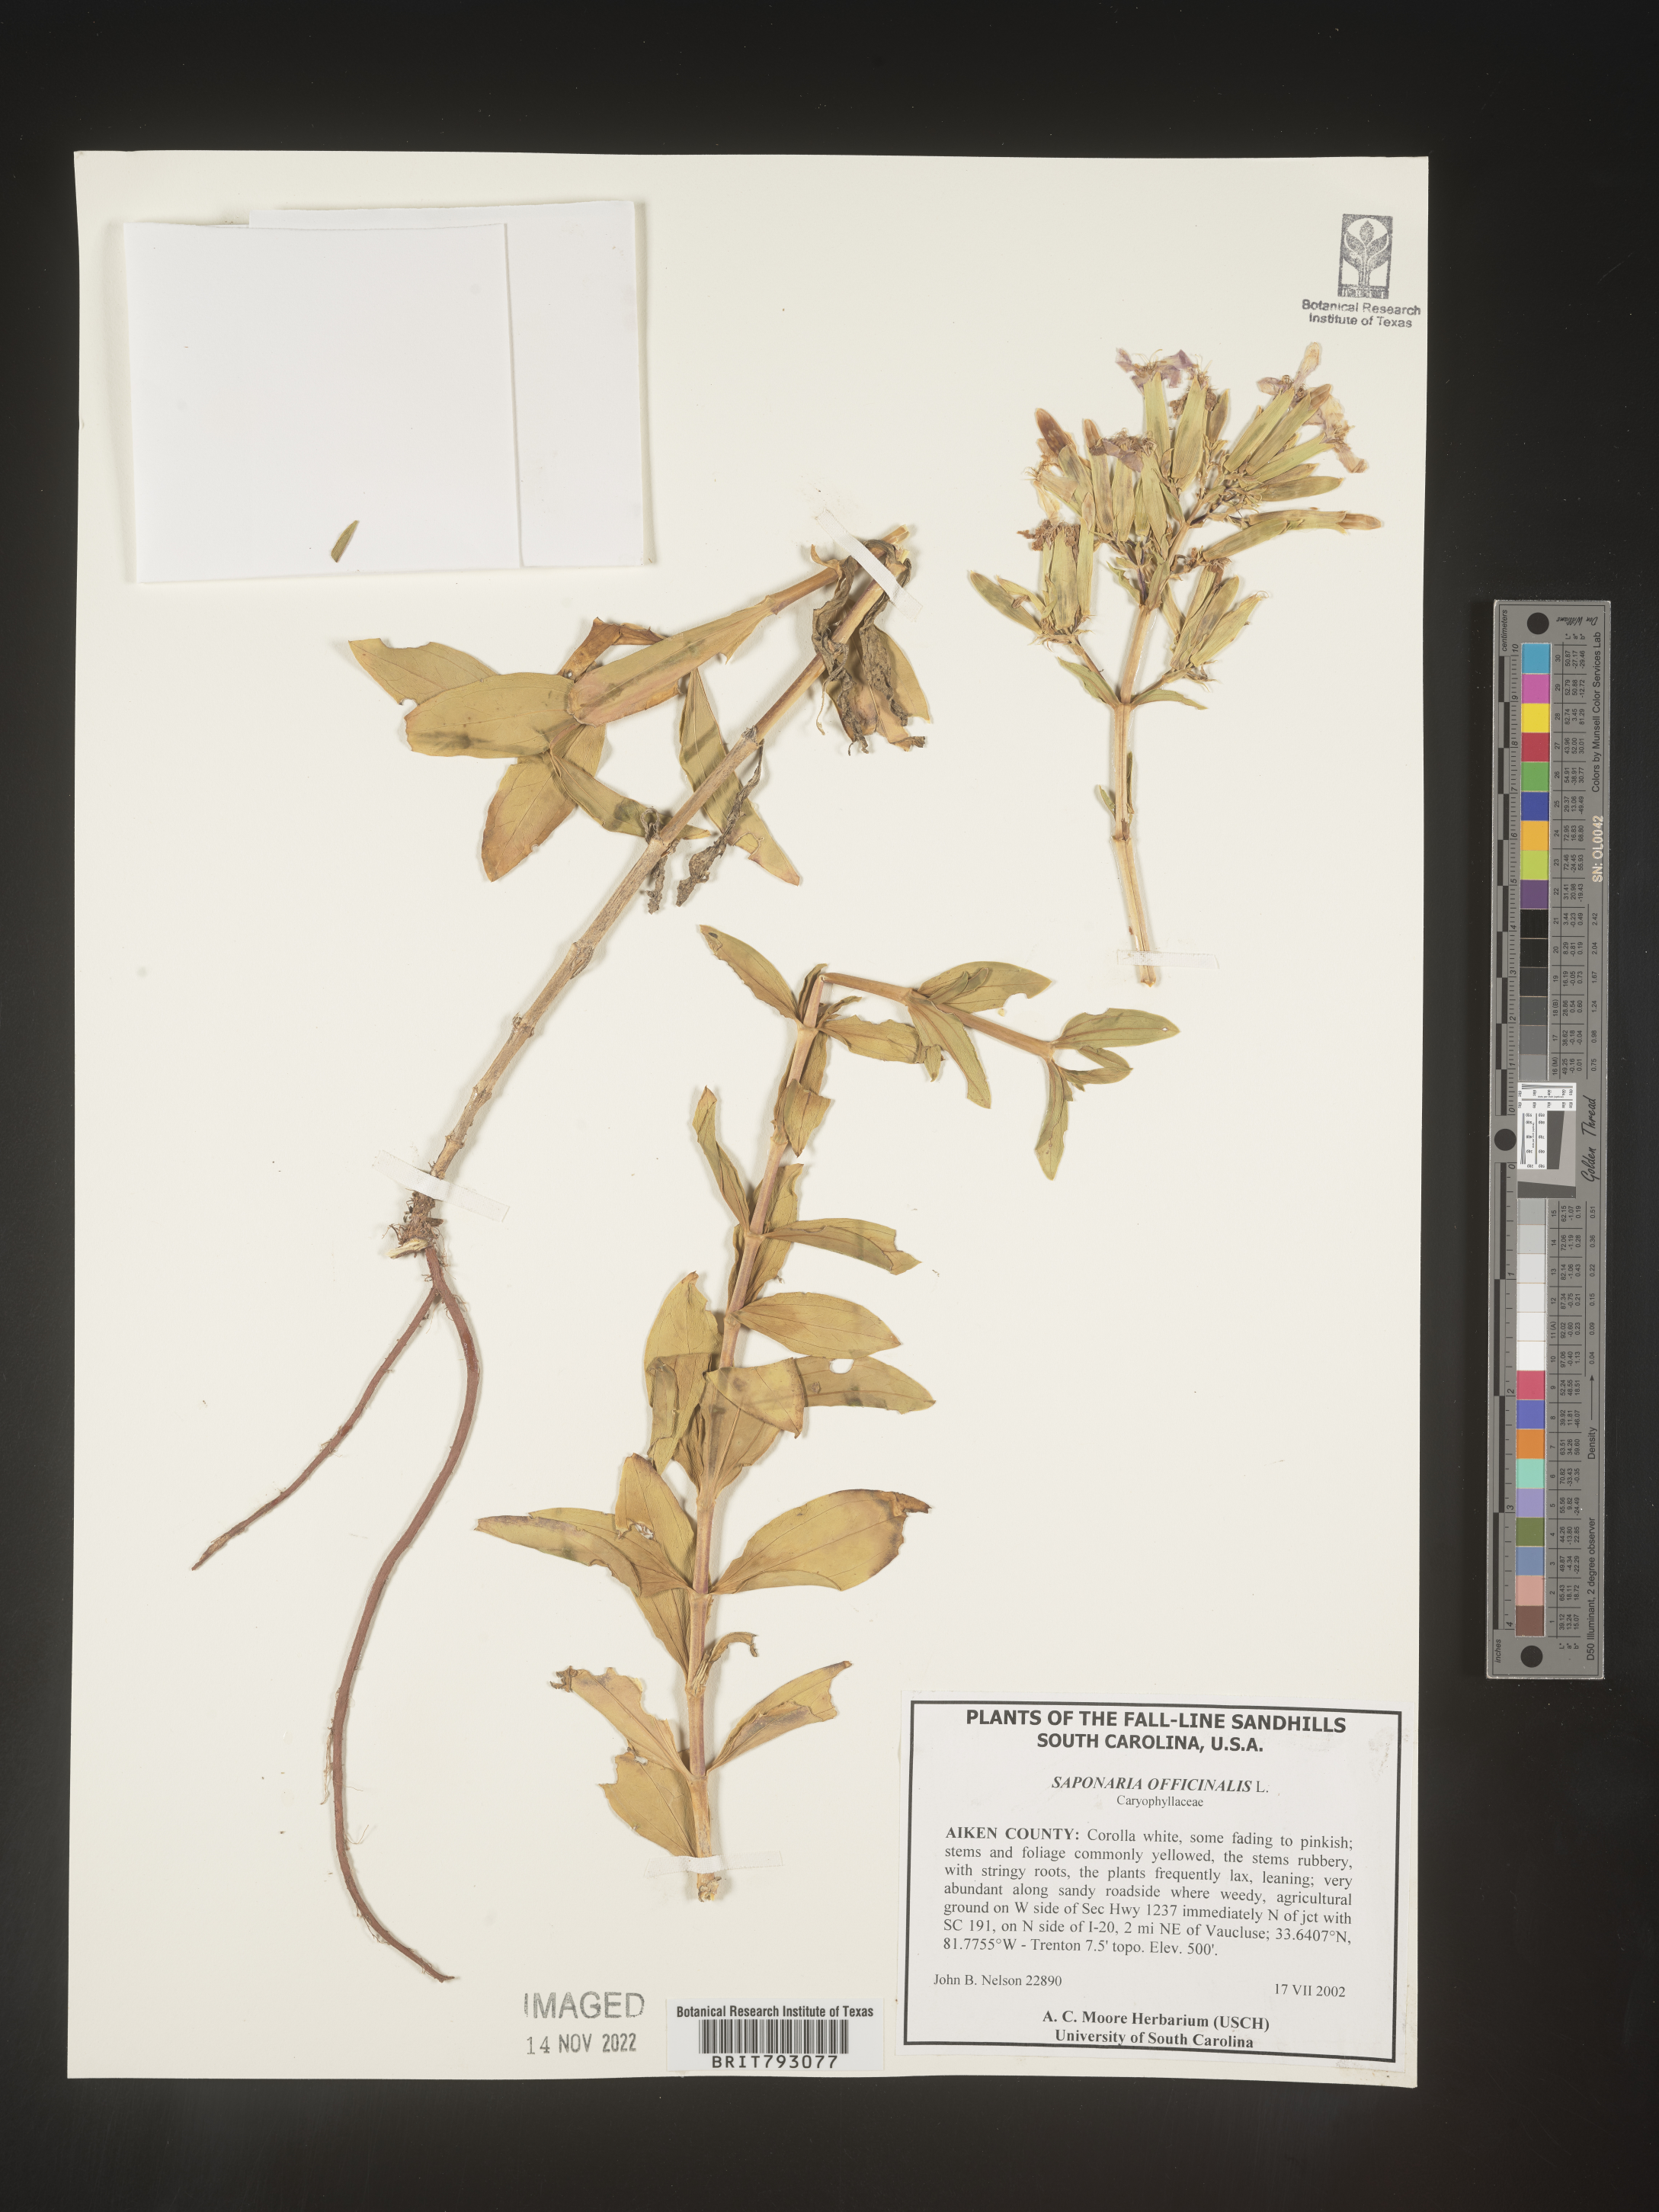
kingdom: Plantae
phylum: Tracheophyta
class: Magnoliopsida
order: Caryophyllales
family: Caryophyllaceae
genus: Saponaria
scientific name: Saponaria officinalis
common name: Soapwort
